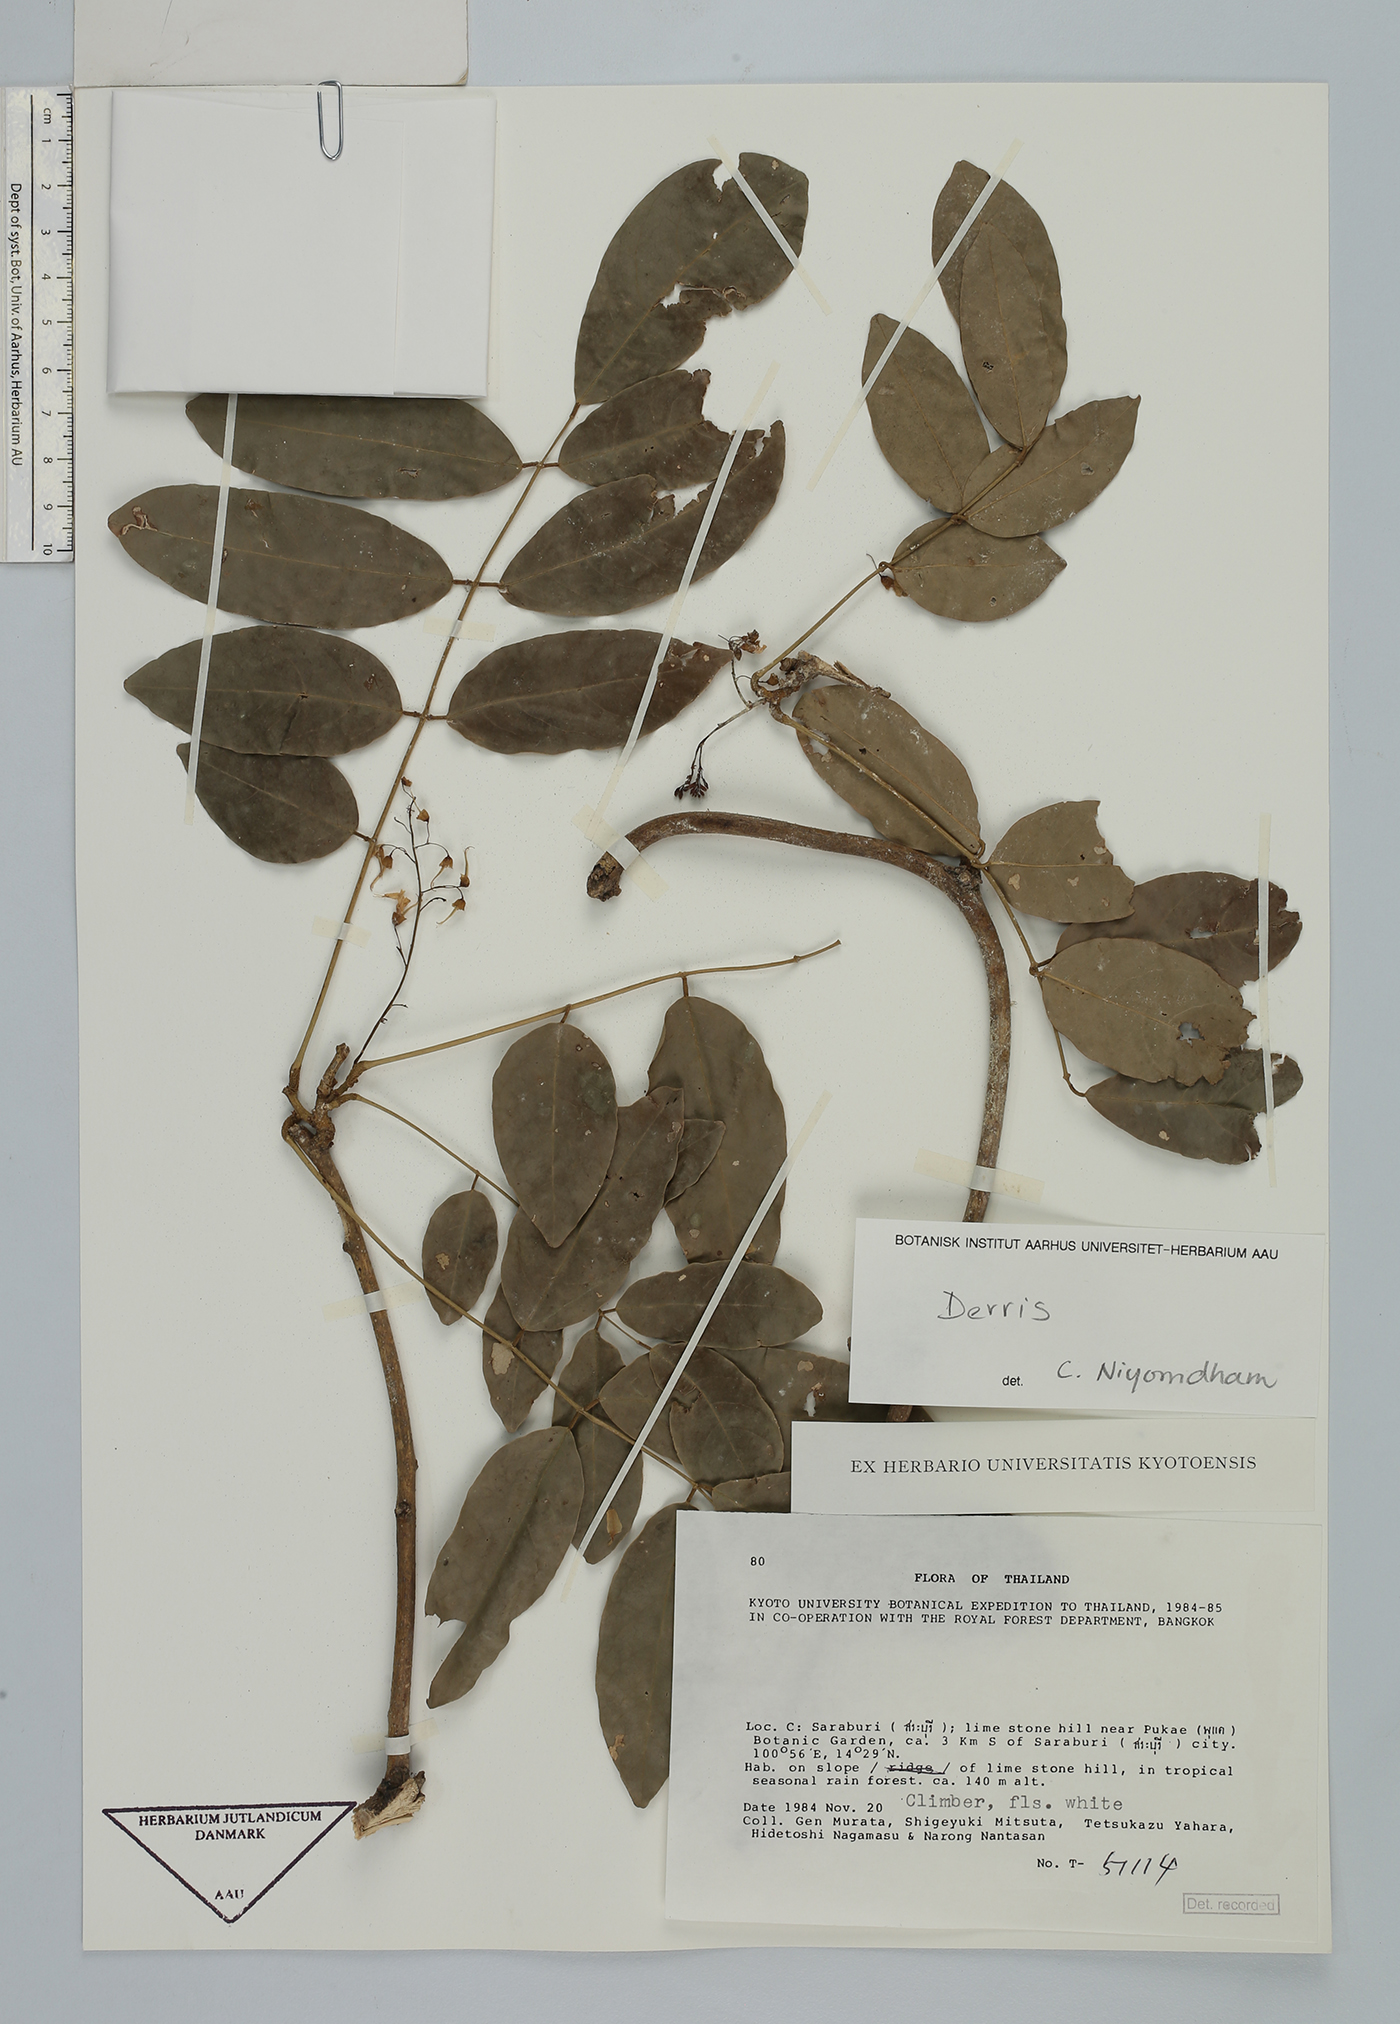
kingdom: Plantae
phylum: Tracheophyta
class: Magnoliopsida
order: Fabales
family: Fabaceae
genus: Derris
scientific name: Derris
